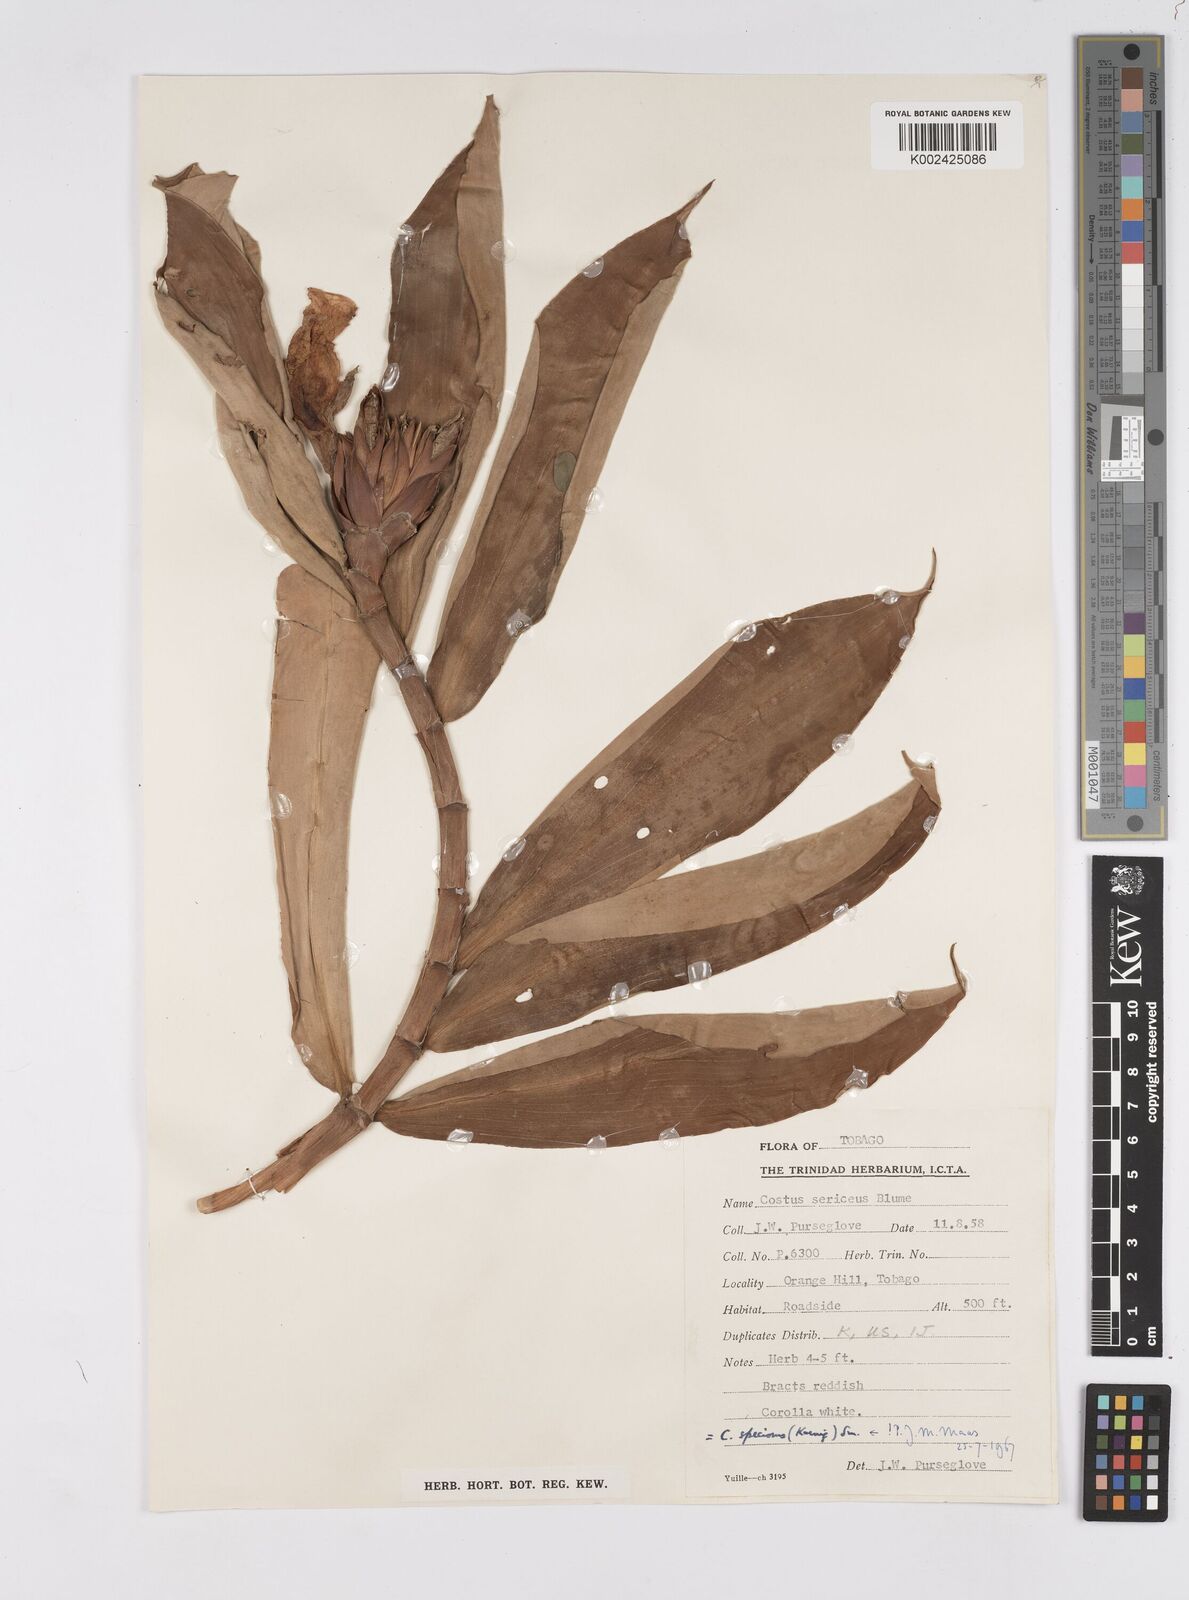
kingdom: Plantae
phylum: Tracheophyta
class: Liliopsida
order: Zingiberales
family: Costaceae
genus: Hellenia
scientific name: Hellenia speciosa
